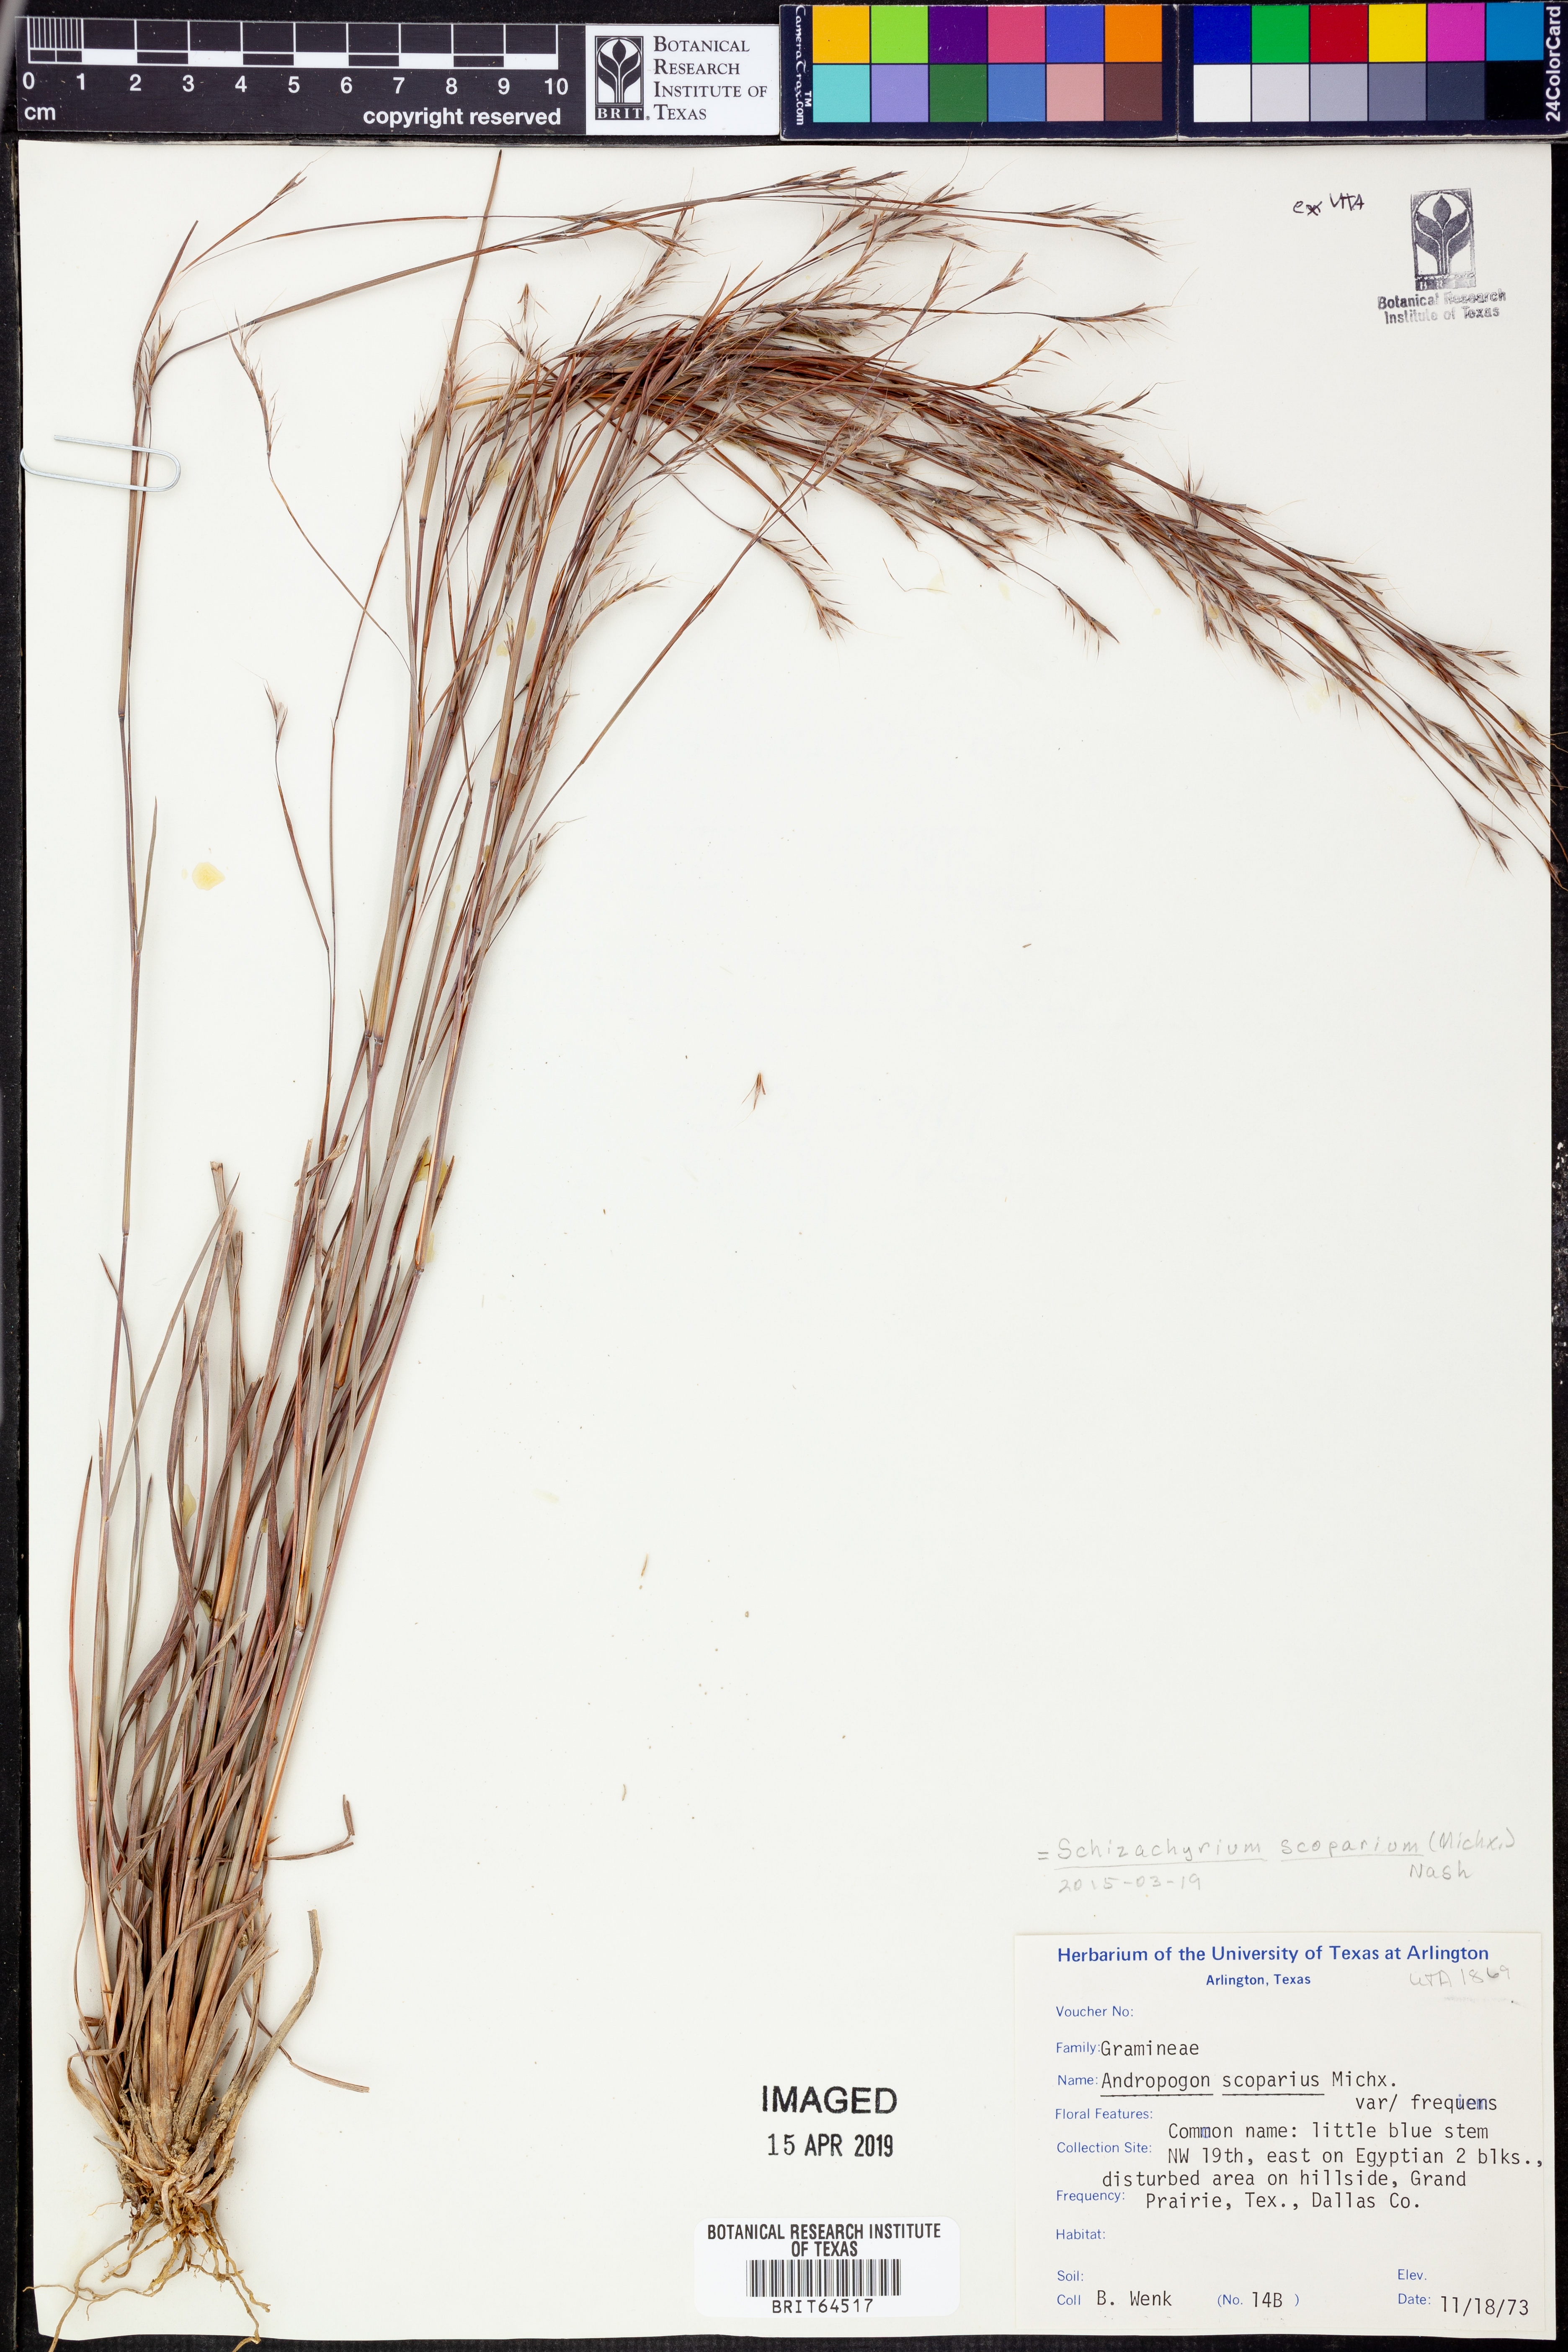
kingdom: Plantae
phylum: Tracheophyta
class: Liliopsida
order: Poales
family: Poaceae
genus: Schizachyrium
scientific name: Schizachyrium scoparium
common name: Little bluestem
